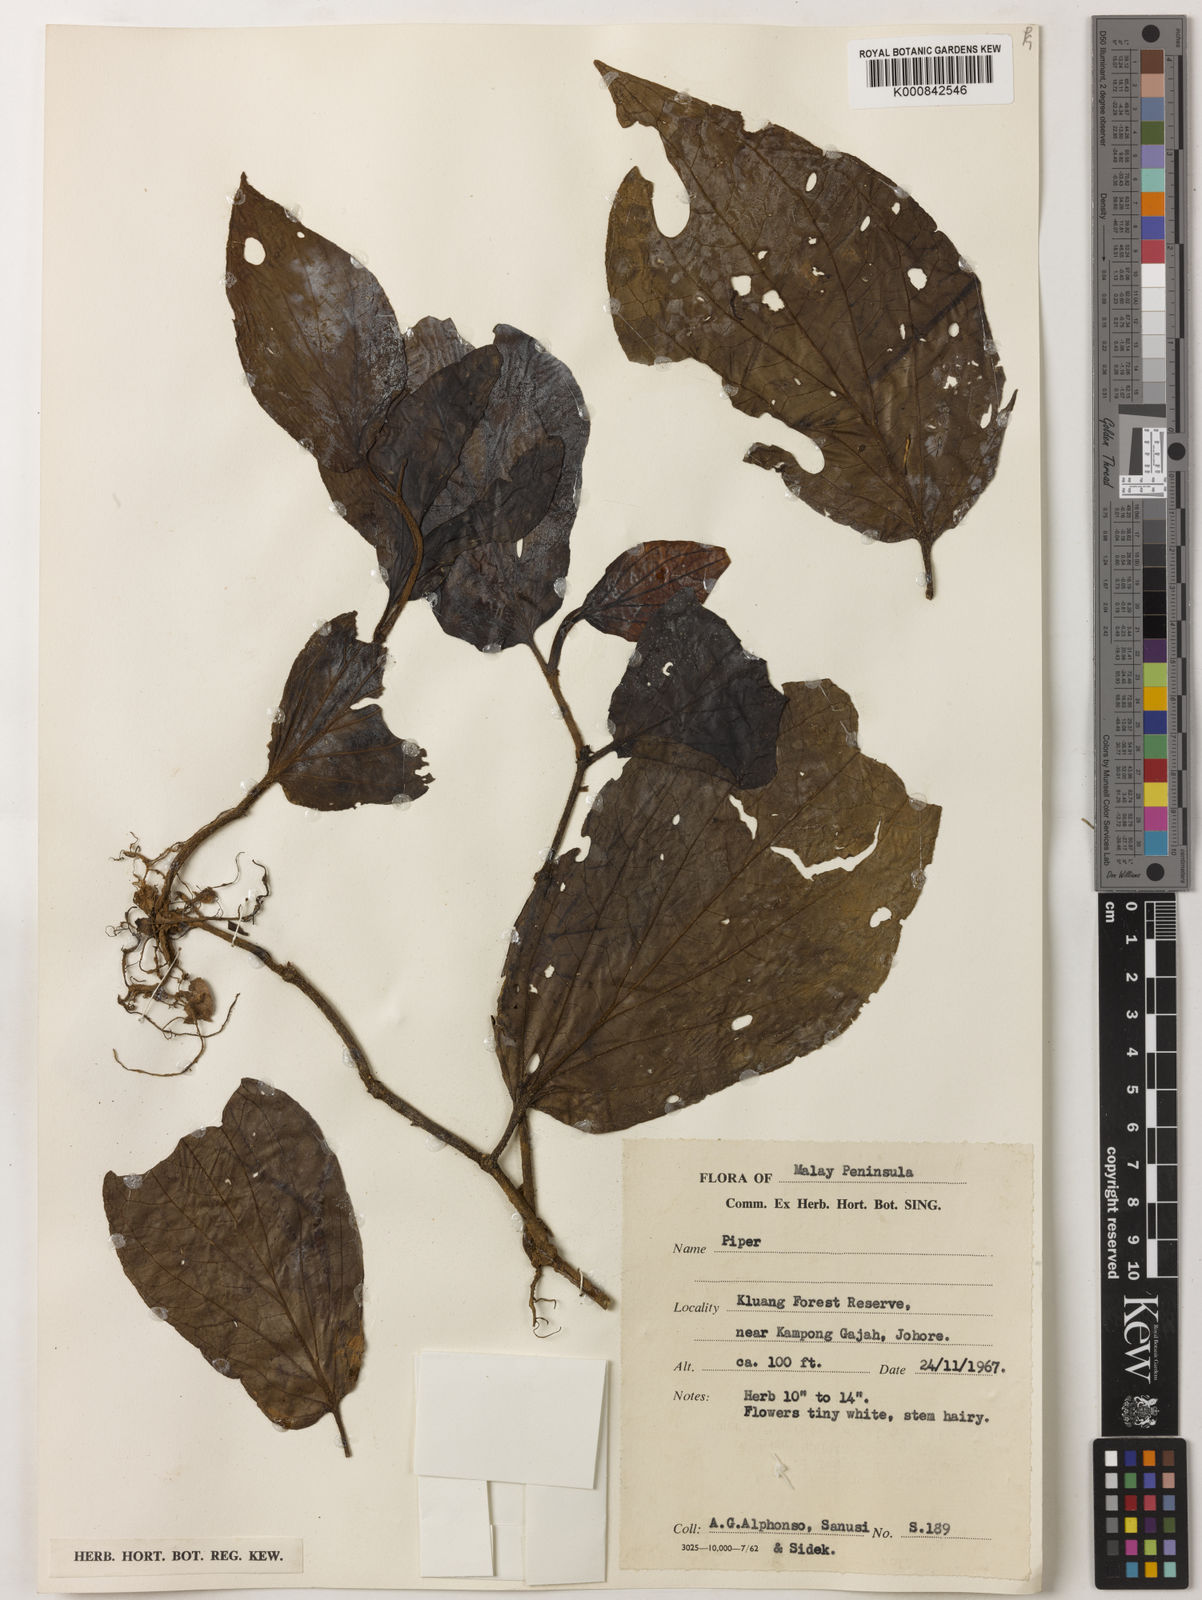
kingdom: Plantae
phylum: Tracheophyta
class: Magnoliopsida
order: Piperales
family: Piperaceae
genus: Piper
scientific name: Piper
